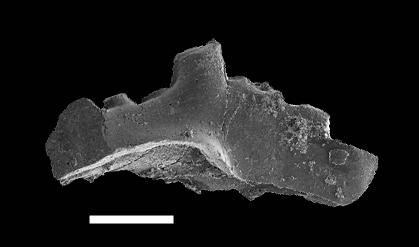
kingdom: Animalia
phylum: Chordata
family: Hibbardellidae
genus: Oulodus
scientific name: Oulodus
